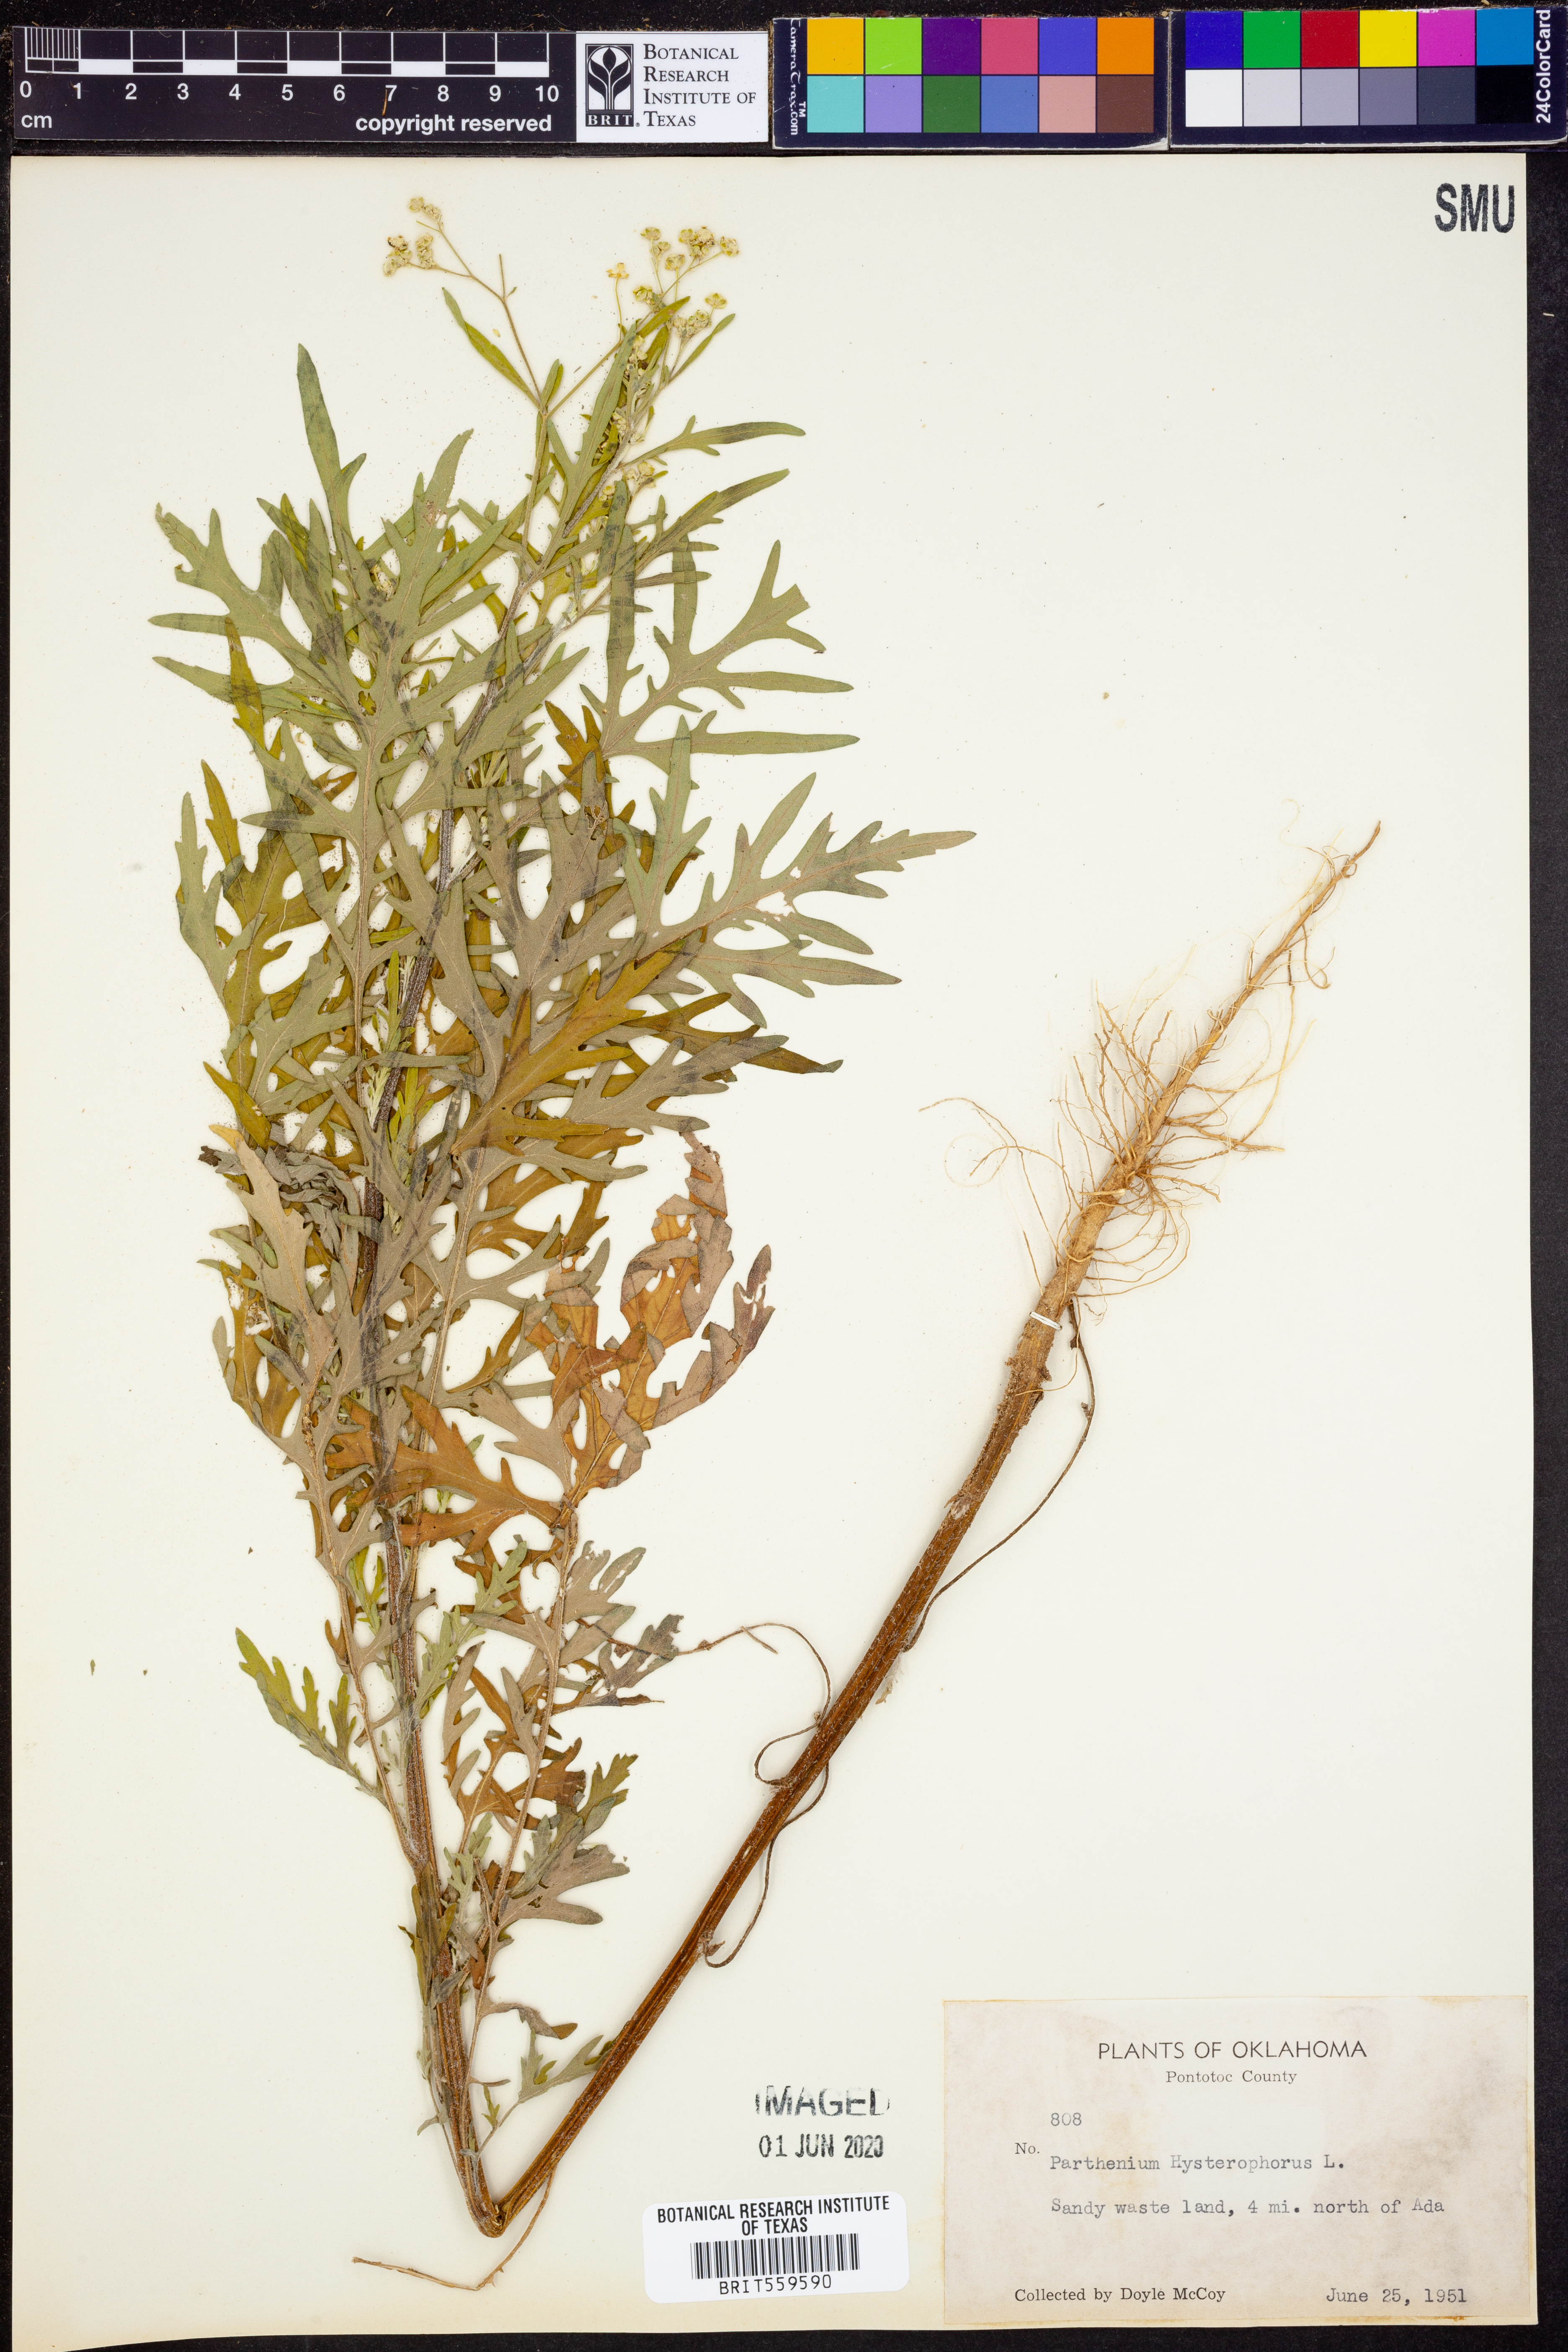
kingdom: Plantae
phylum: Tracheophyta
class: Magnoliopsida
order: Asterales
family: Asteraceae
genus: Parthenium
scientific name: Parthenium hysterophorus
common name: Santa maria feverfew
